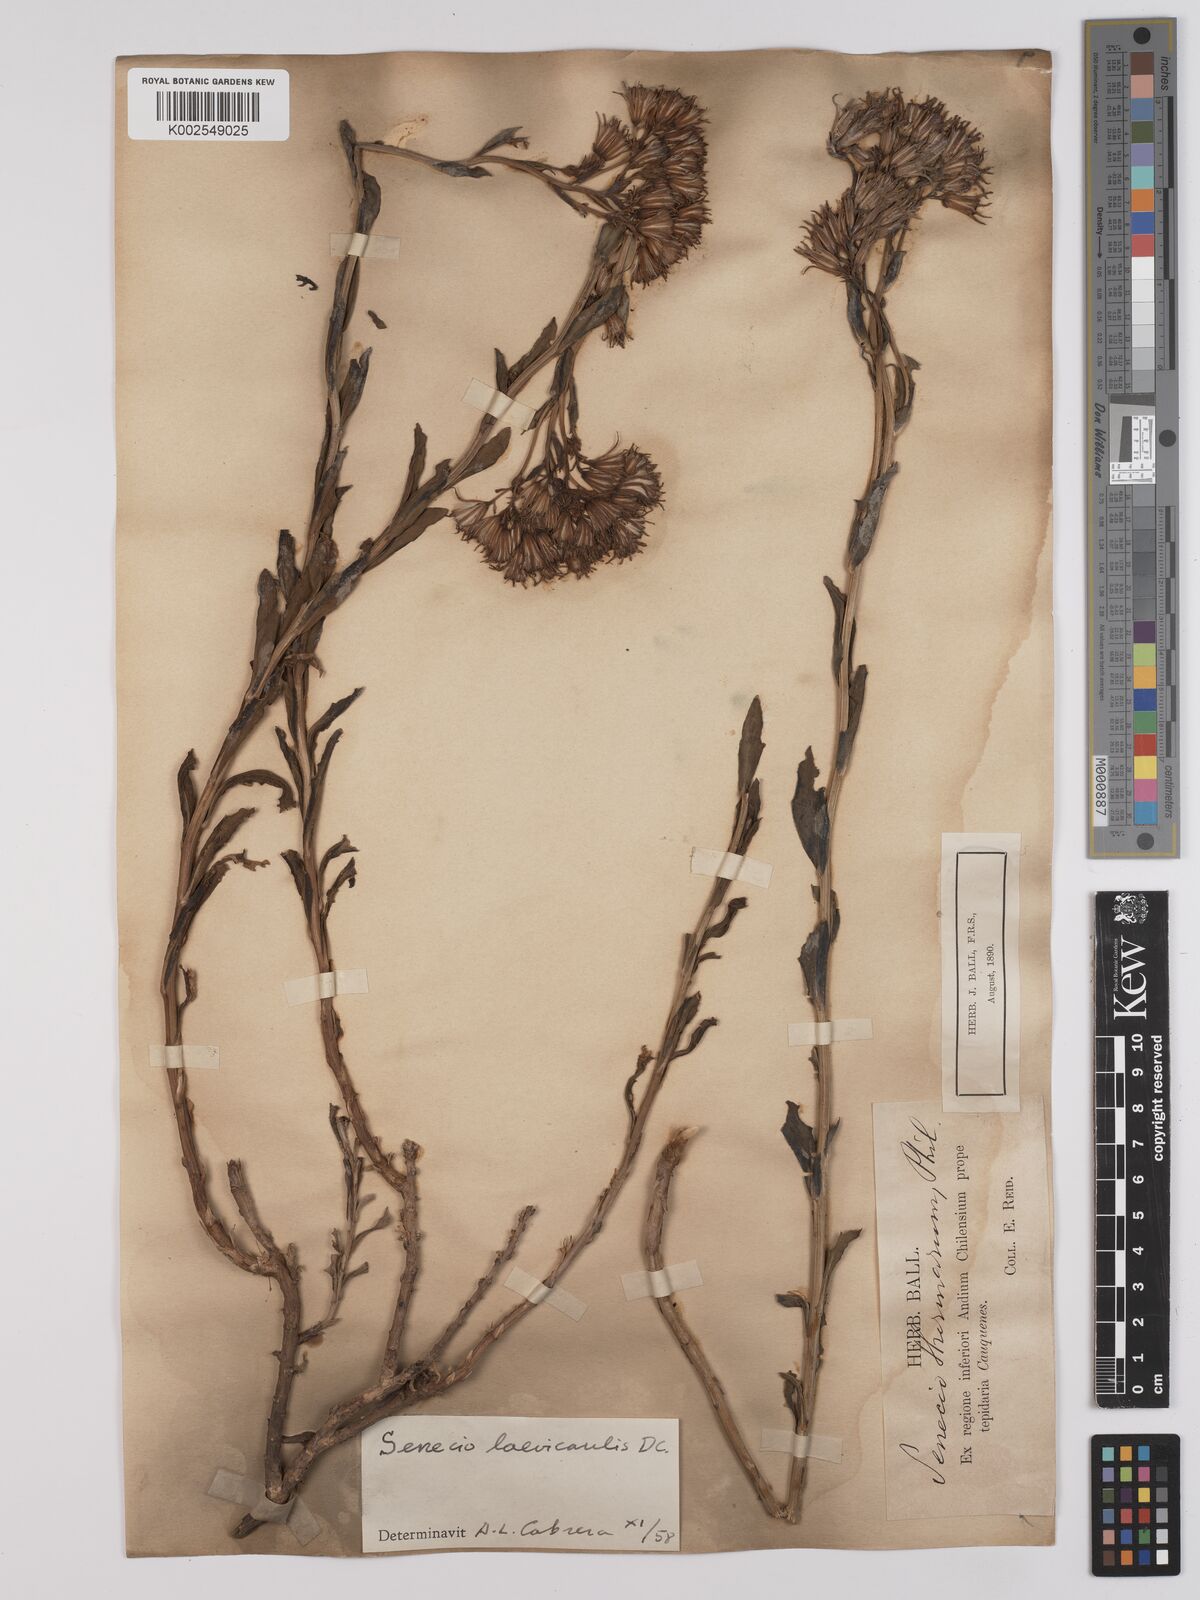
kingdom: Plantae
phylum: Tracheophyta
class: Magnoliopsida
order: Asterales
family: Asteraceae
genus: Senecio
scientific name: Senecio laevicaulis
